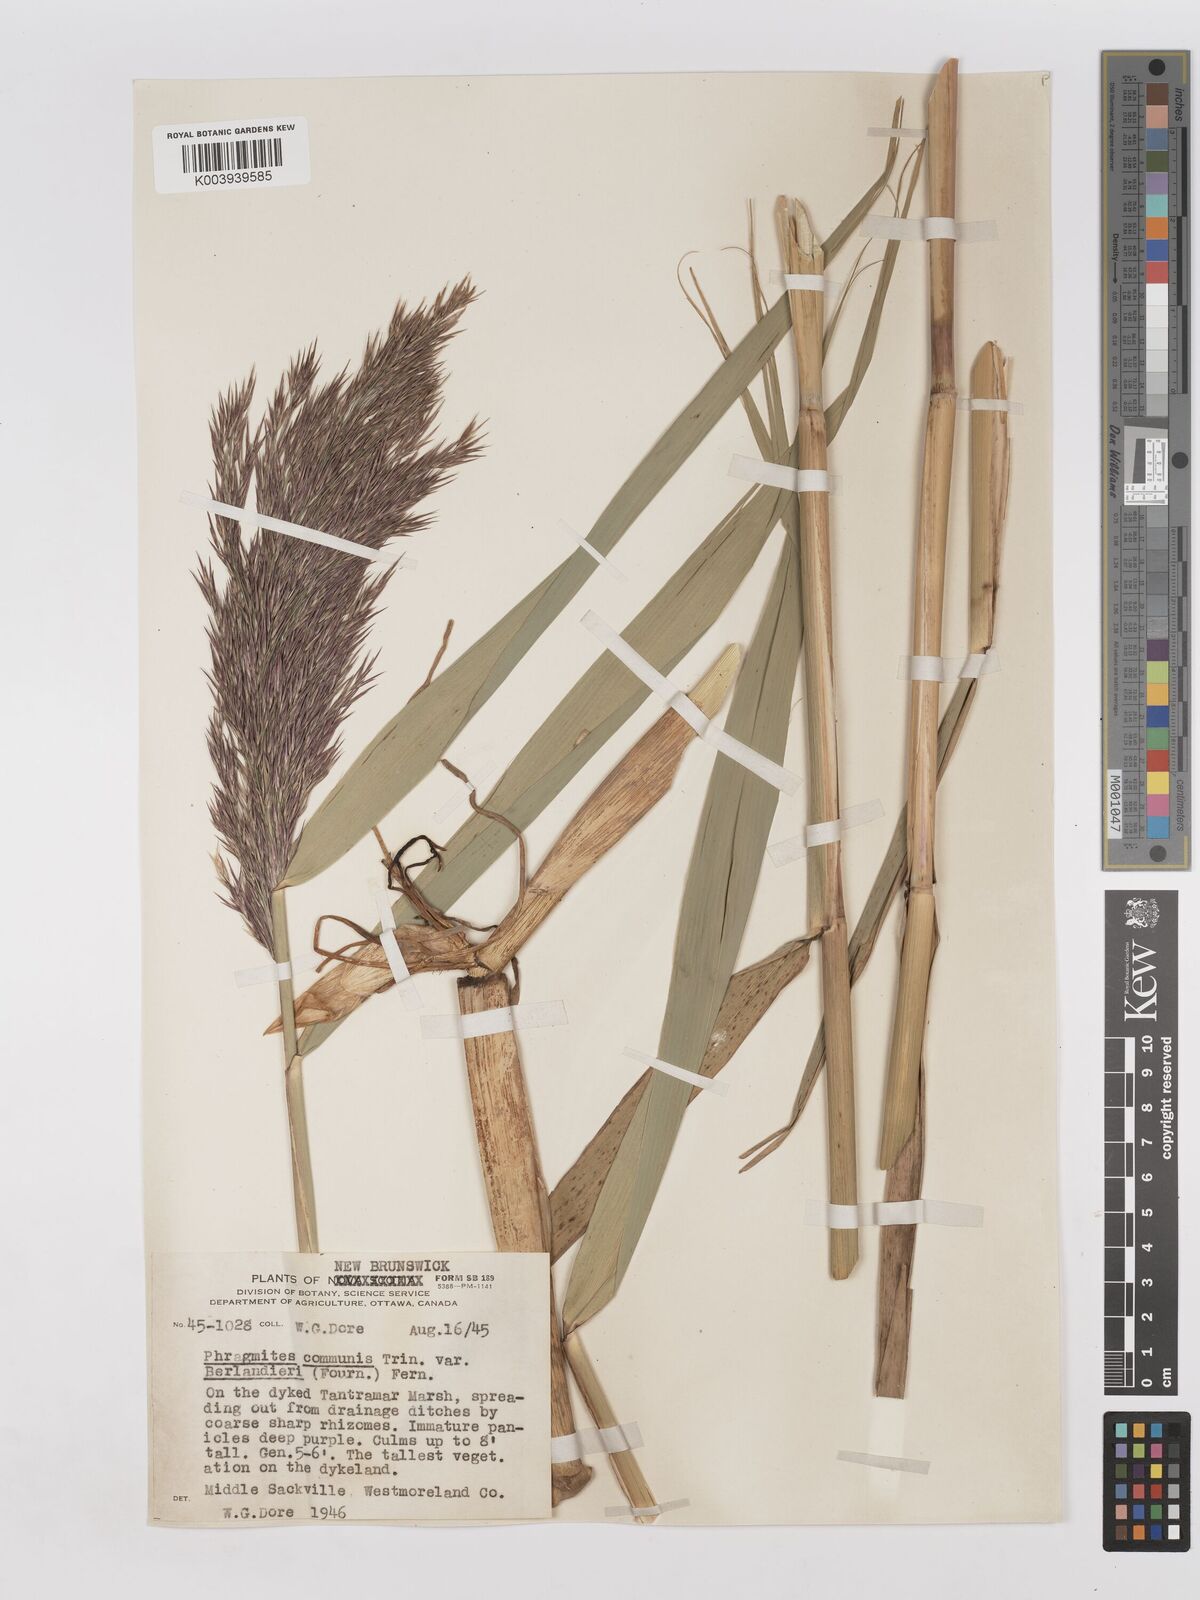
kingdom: Plantae
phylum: Tracheophyta
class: Liliopsida
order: Poales
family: Poaceae
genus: Phragmites
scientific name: Phragmites australis
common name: Common reed
